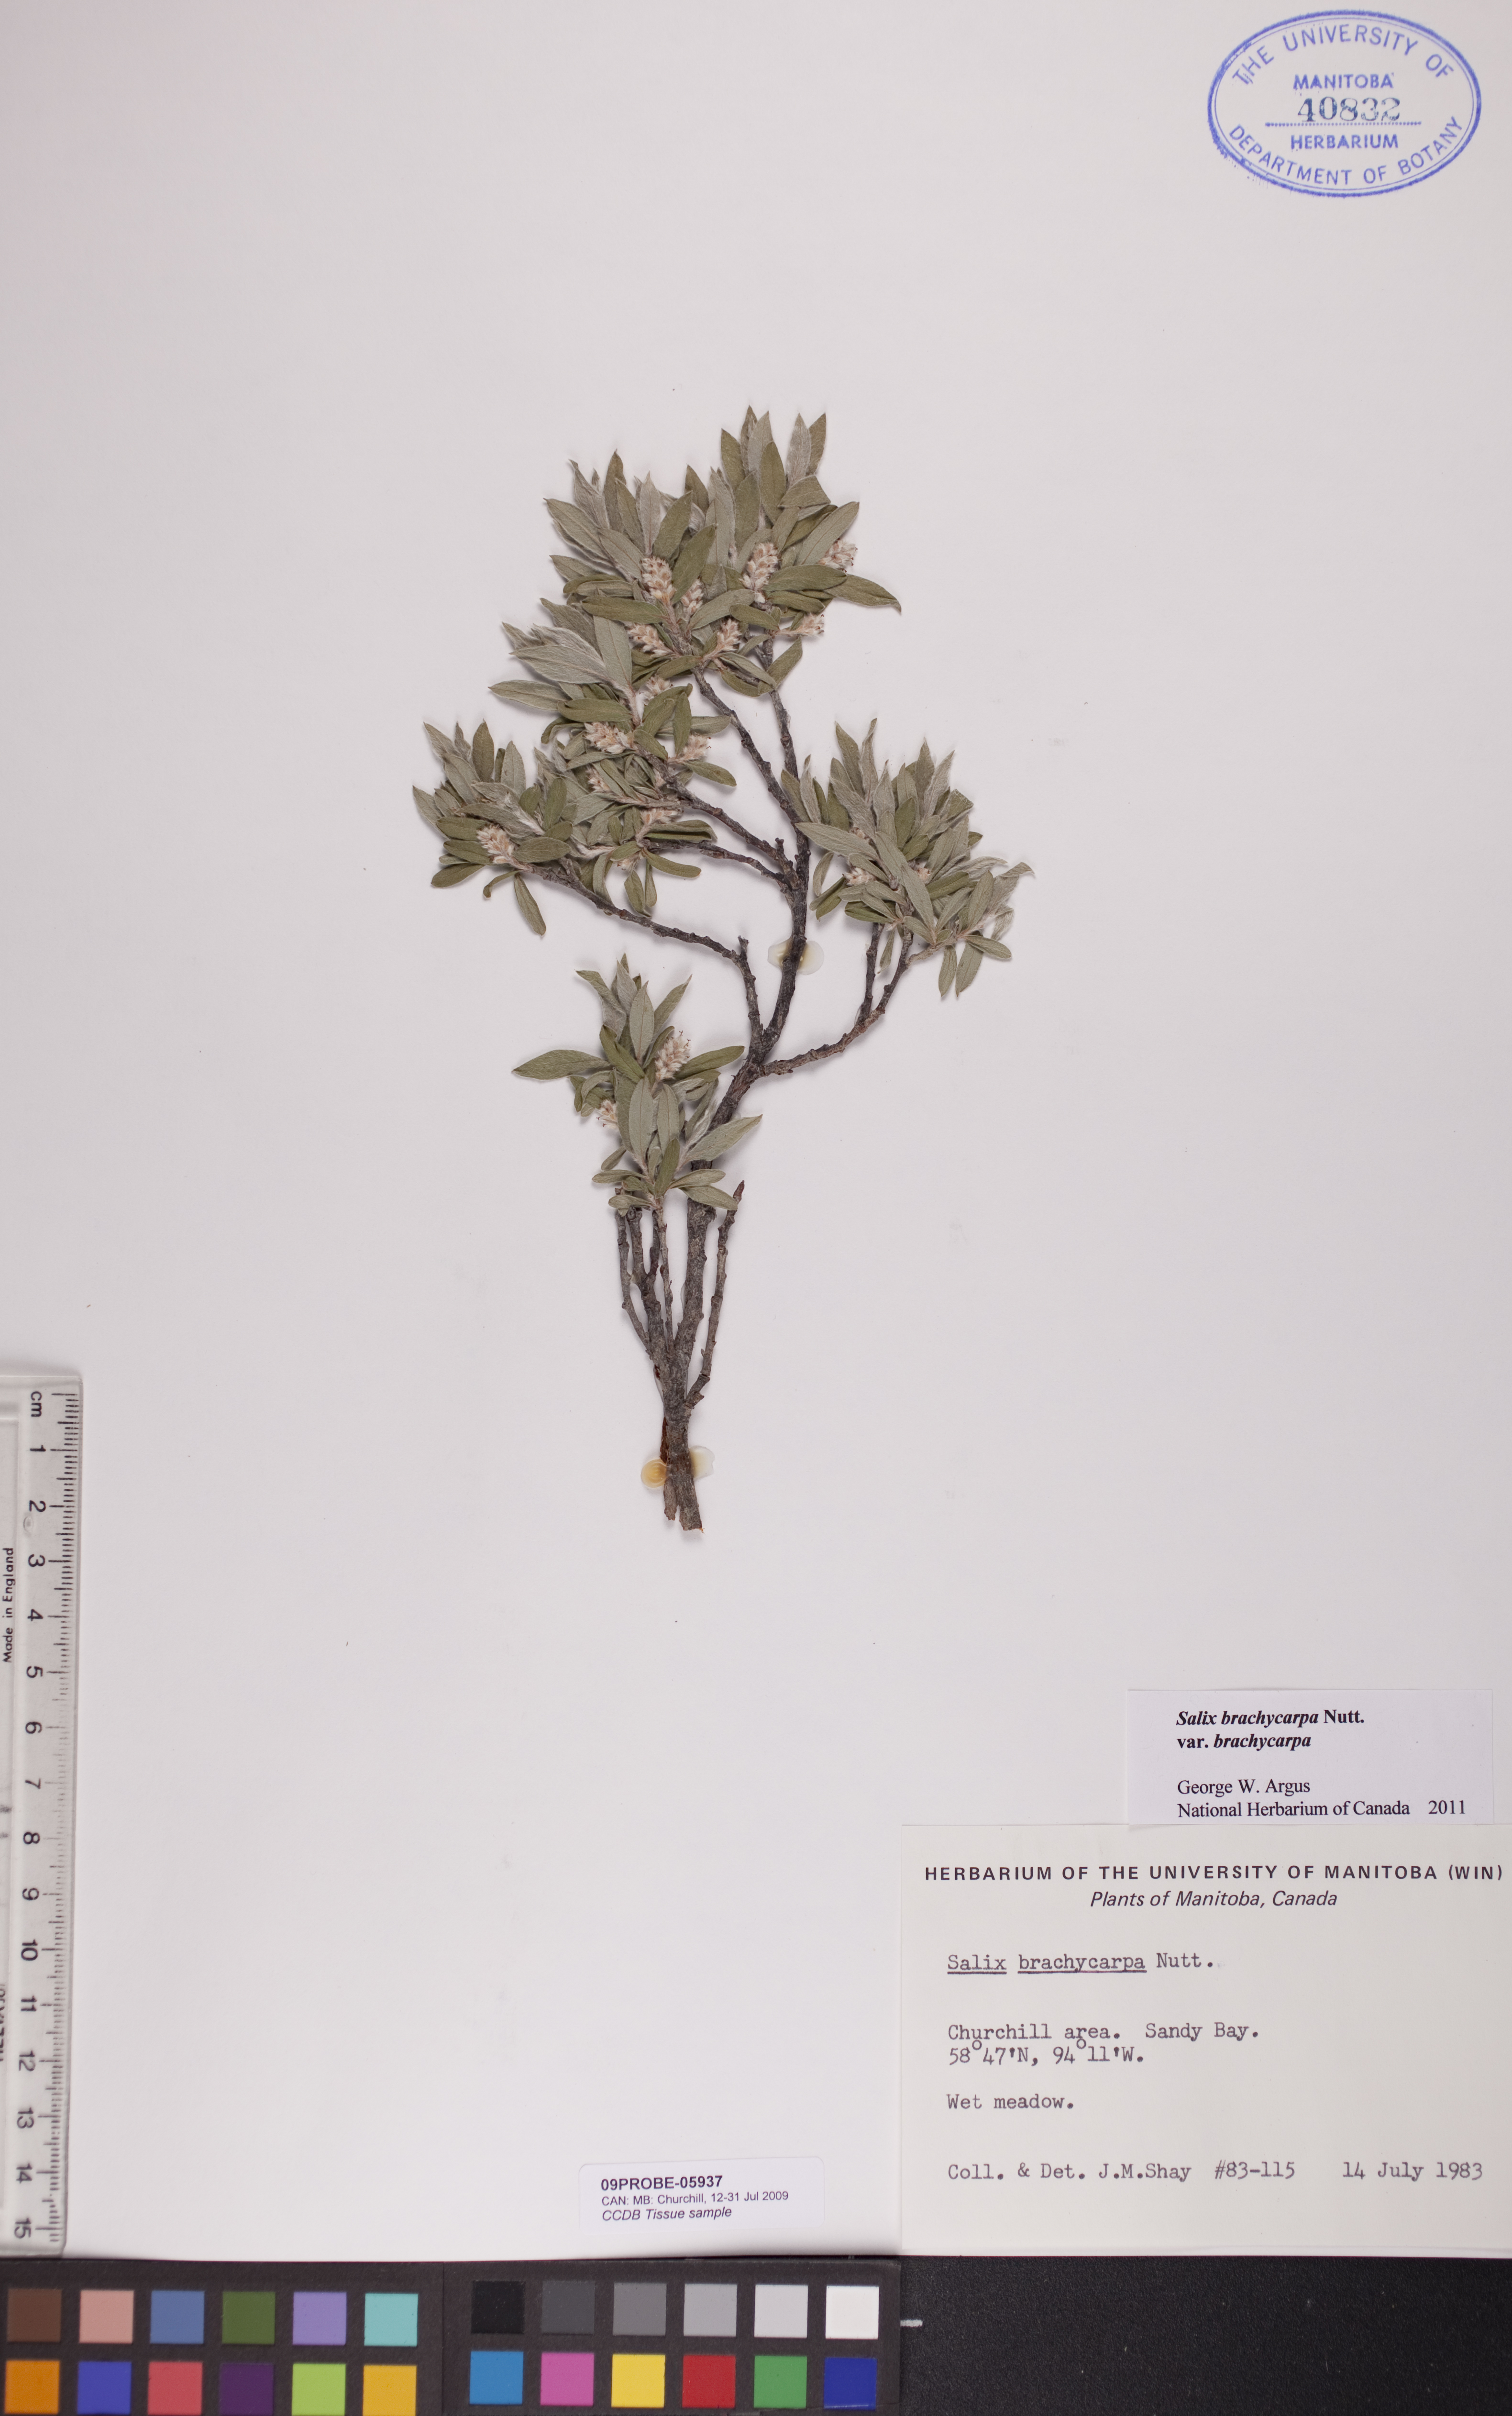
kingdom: Plantae
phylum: Tracheophyta
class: Magnoliopsida
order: Malpighiales
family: Salicaceae
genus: Salix
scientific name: Salix brachycarpa
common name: Barren-ground willow
